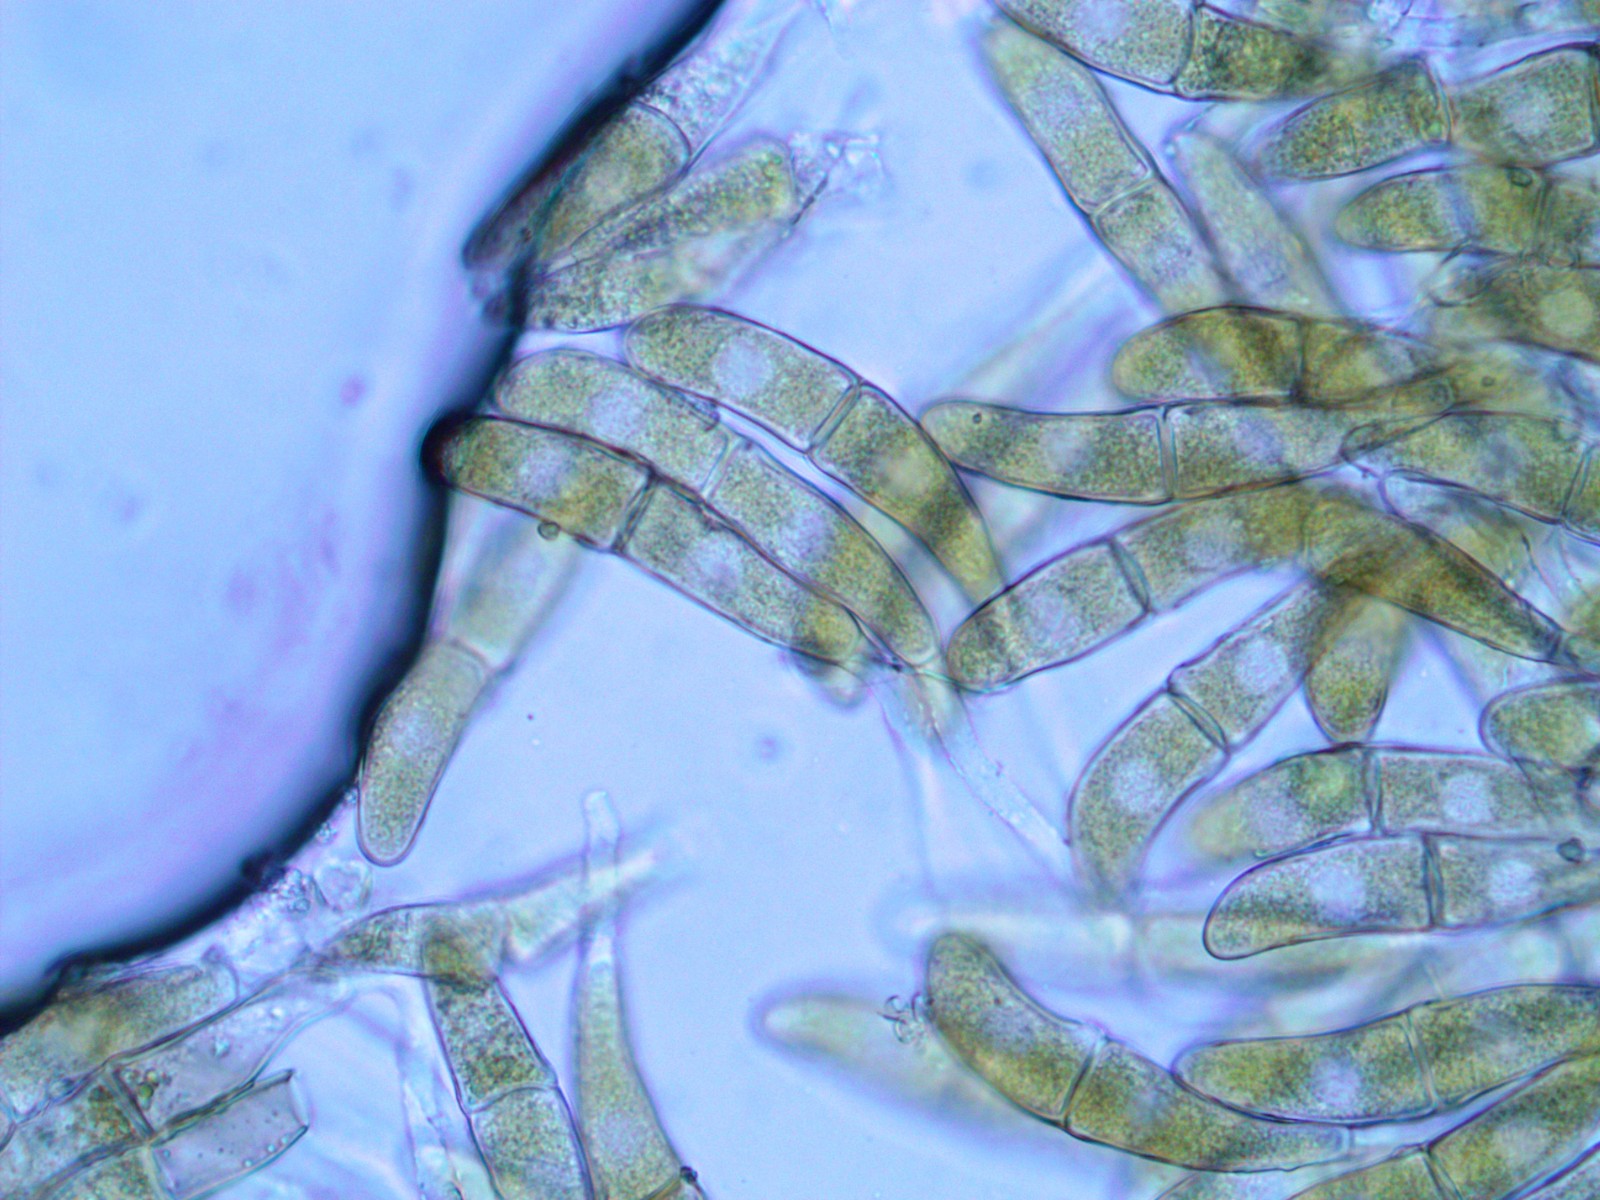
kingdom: Fungi
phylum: Basidiomycota
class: Pucciniomycetes
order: Pucciniales
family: Gymnosporangiaceae
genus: Gymnosporangium
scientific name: Gymnosporangium clavariiforme
